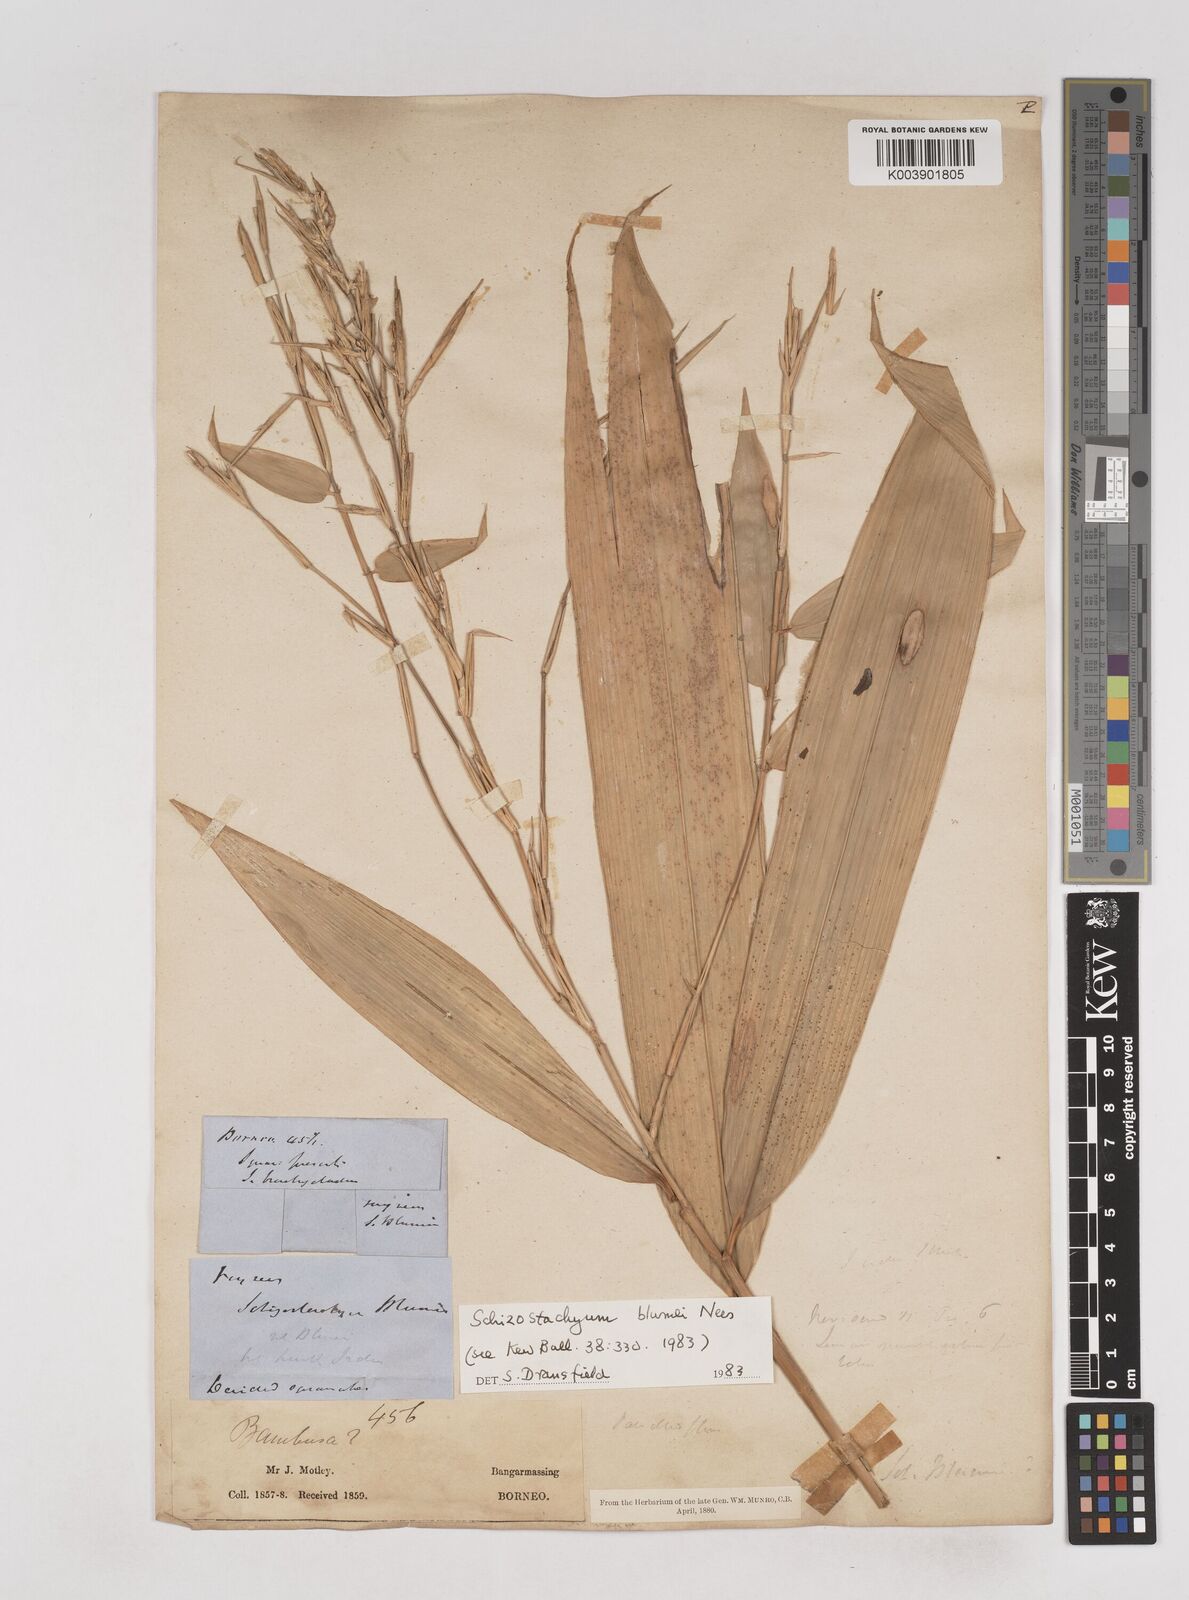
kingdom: Plantae
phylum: Tracheophyta
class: Liliopsida
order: Poales
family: Poaceae
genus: Schizostachyum
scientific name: Schizostachyum blumei
